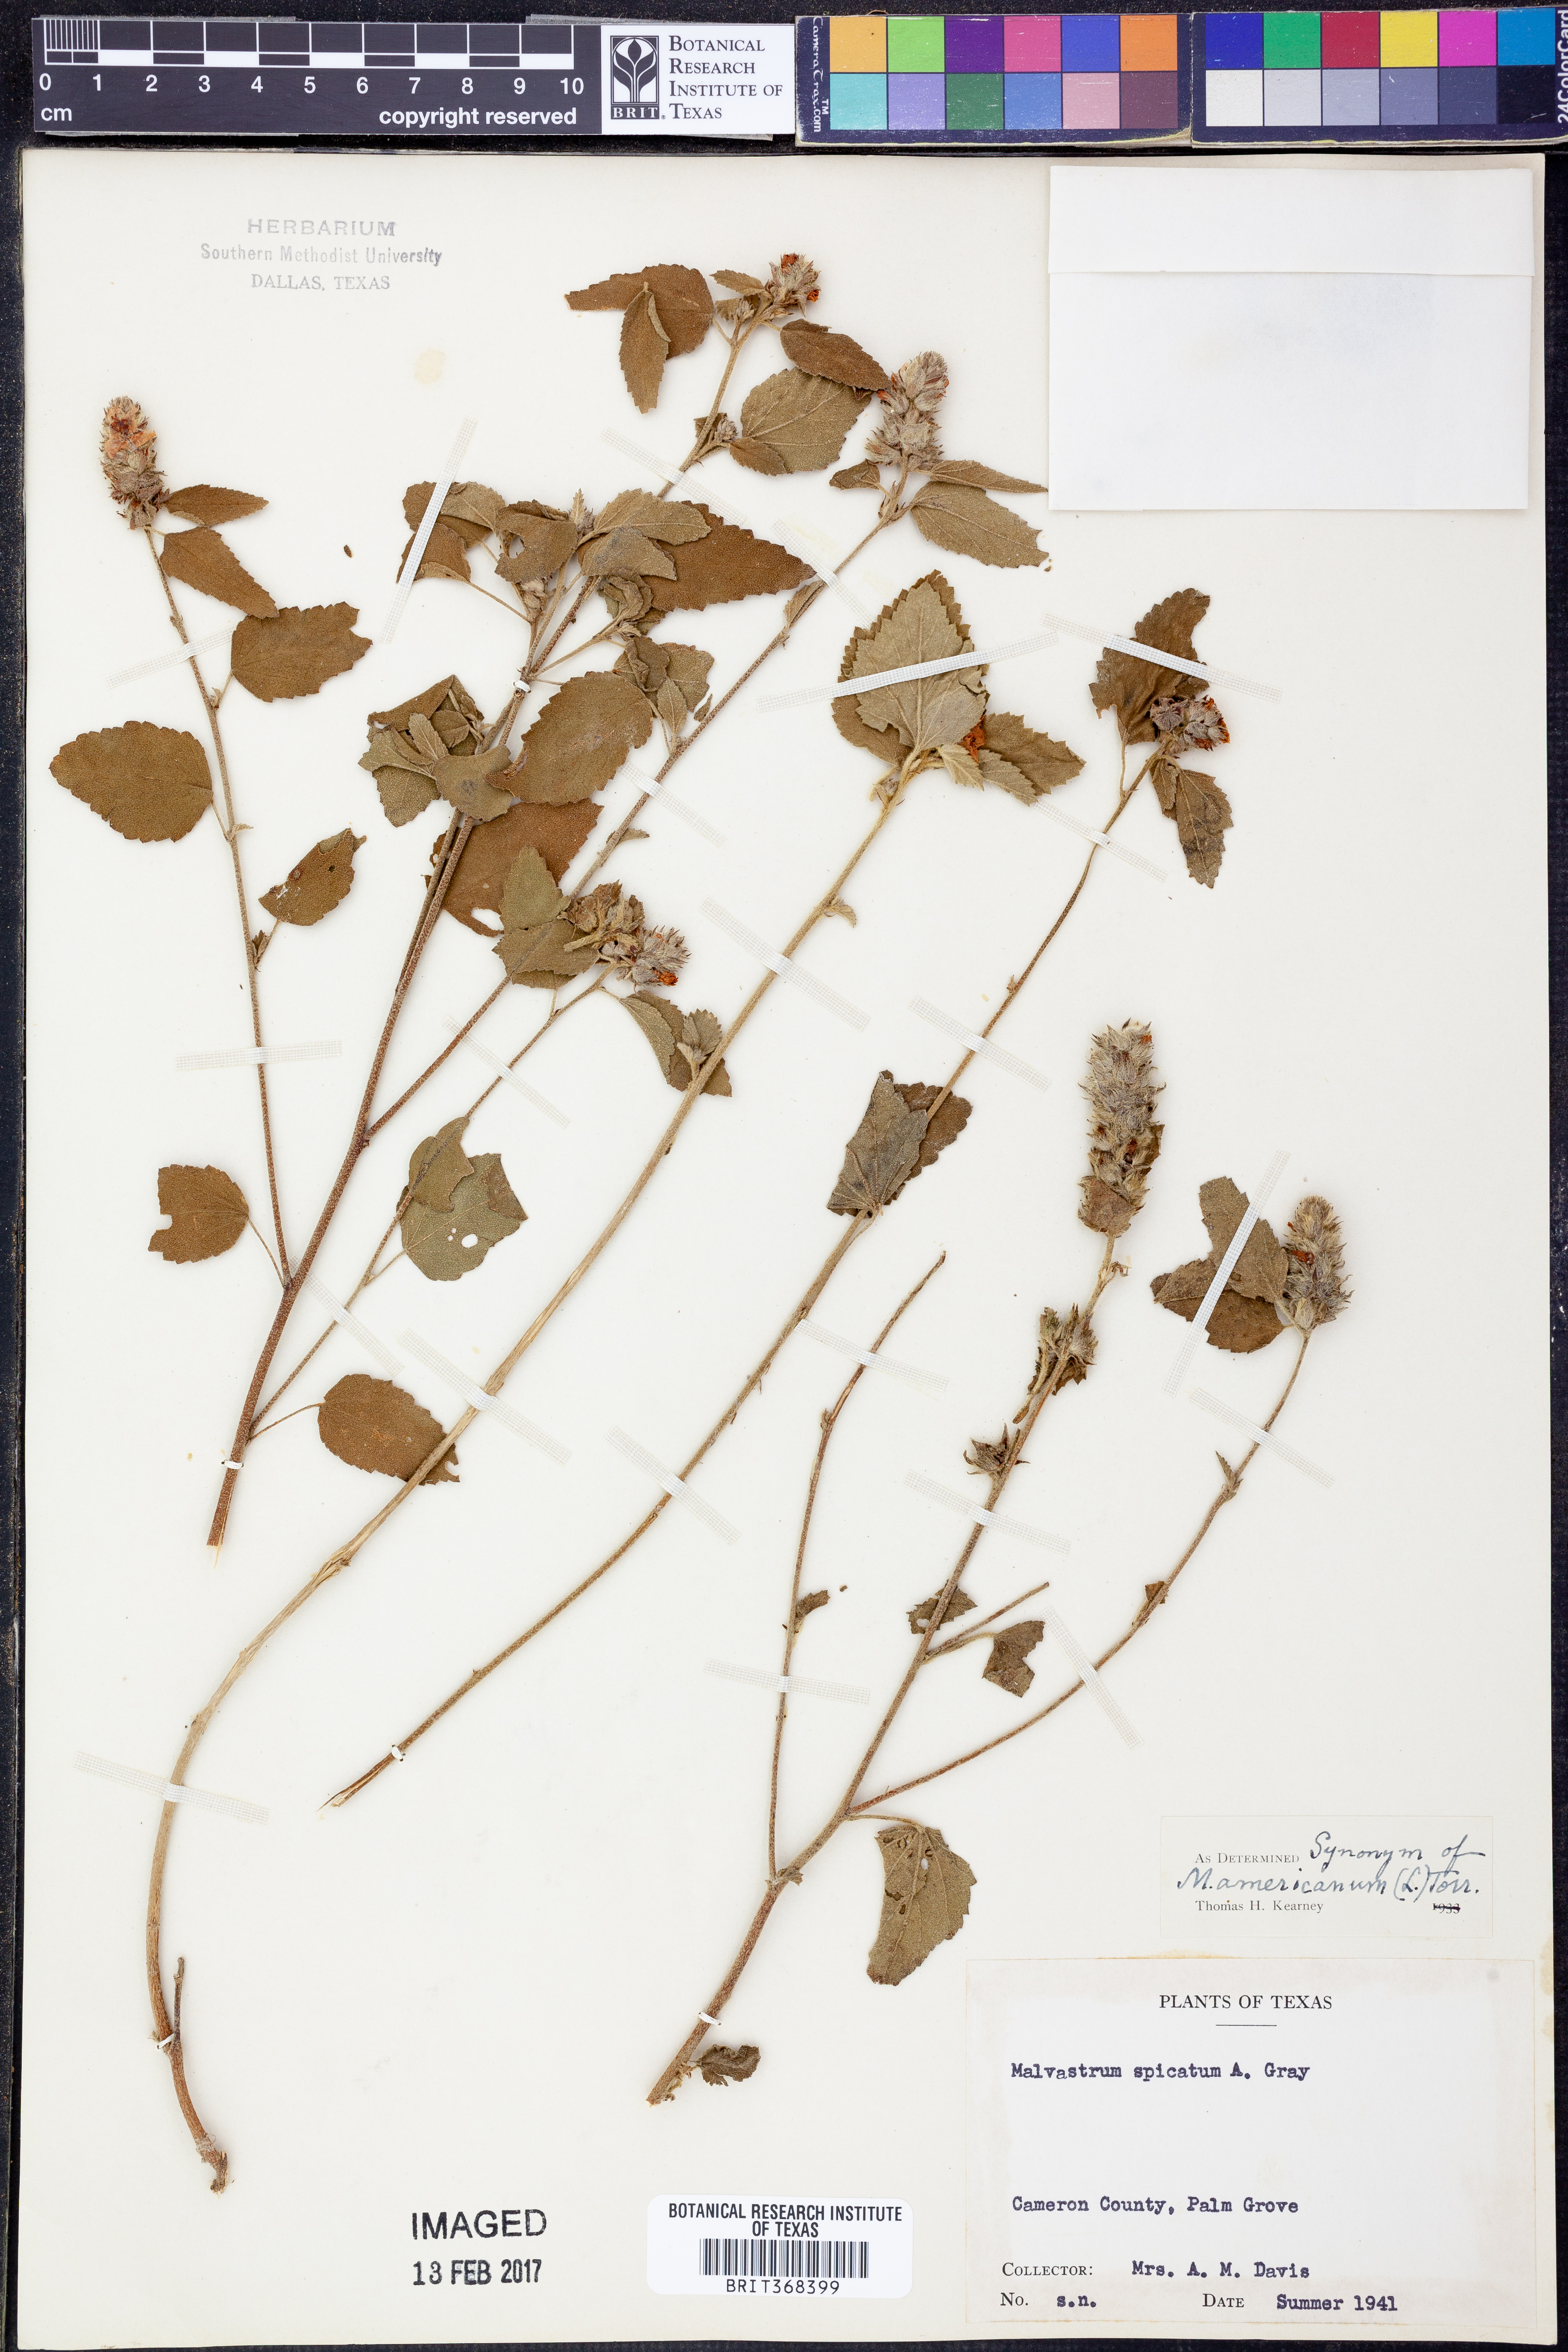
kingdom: Plantae
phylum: Tracheophyta
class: Magnoliopsida
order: Malvales
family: Malvaceae
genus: Melochia
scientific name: Melochia spicata
